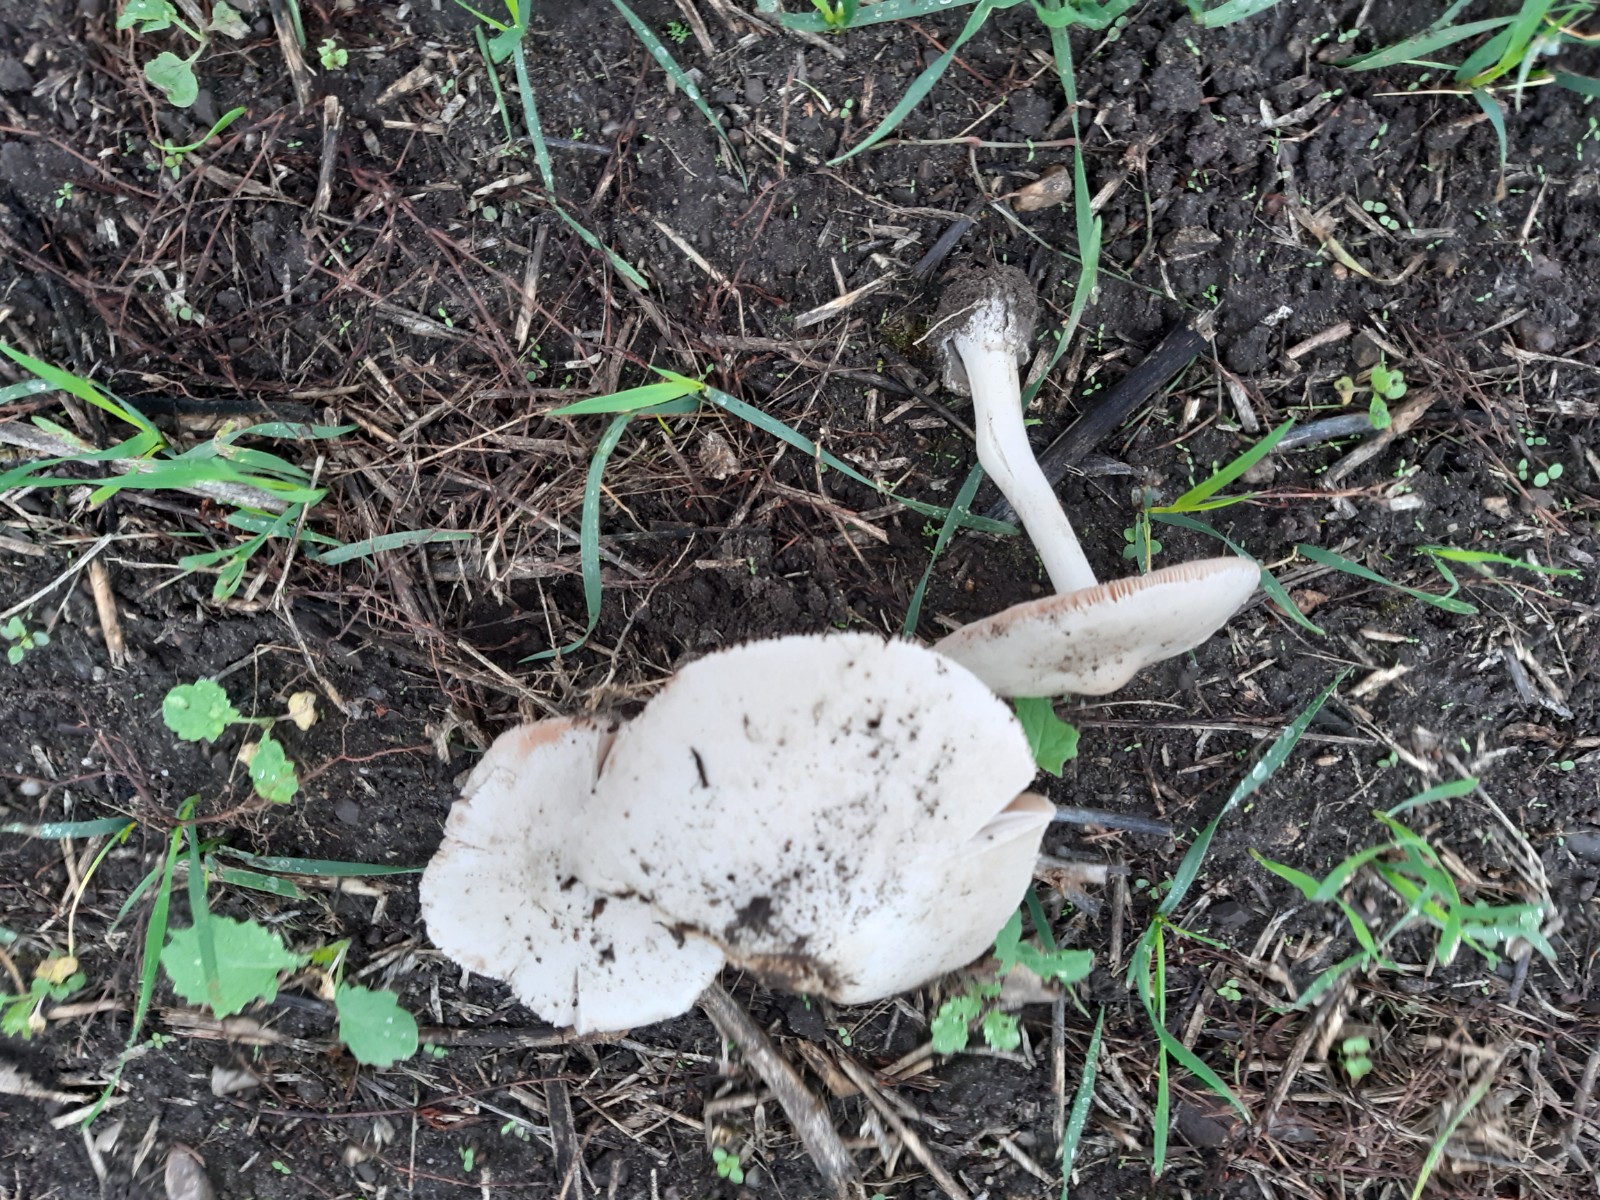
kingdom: Fungi
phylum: Basidiomycota
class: Agaricomycetes
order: Agaricales
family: Pluteaceae
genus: Volvopluteus
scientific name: Volvopluteus gloiocephalus
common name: høj posesvamp
